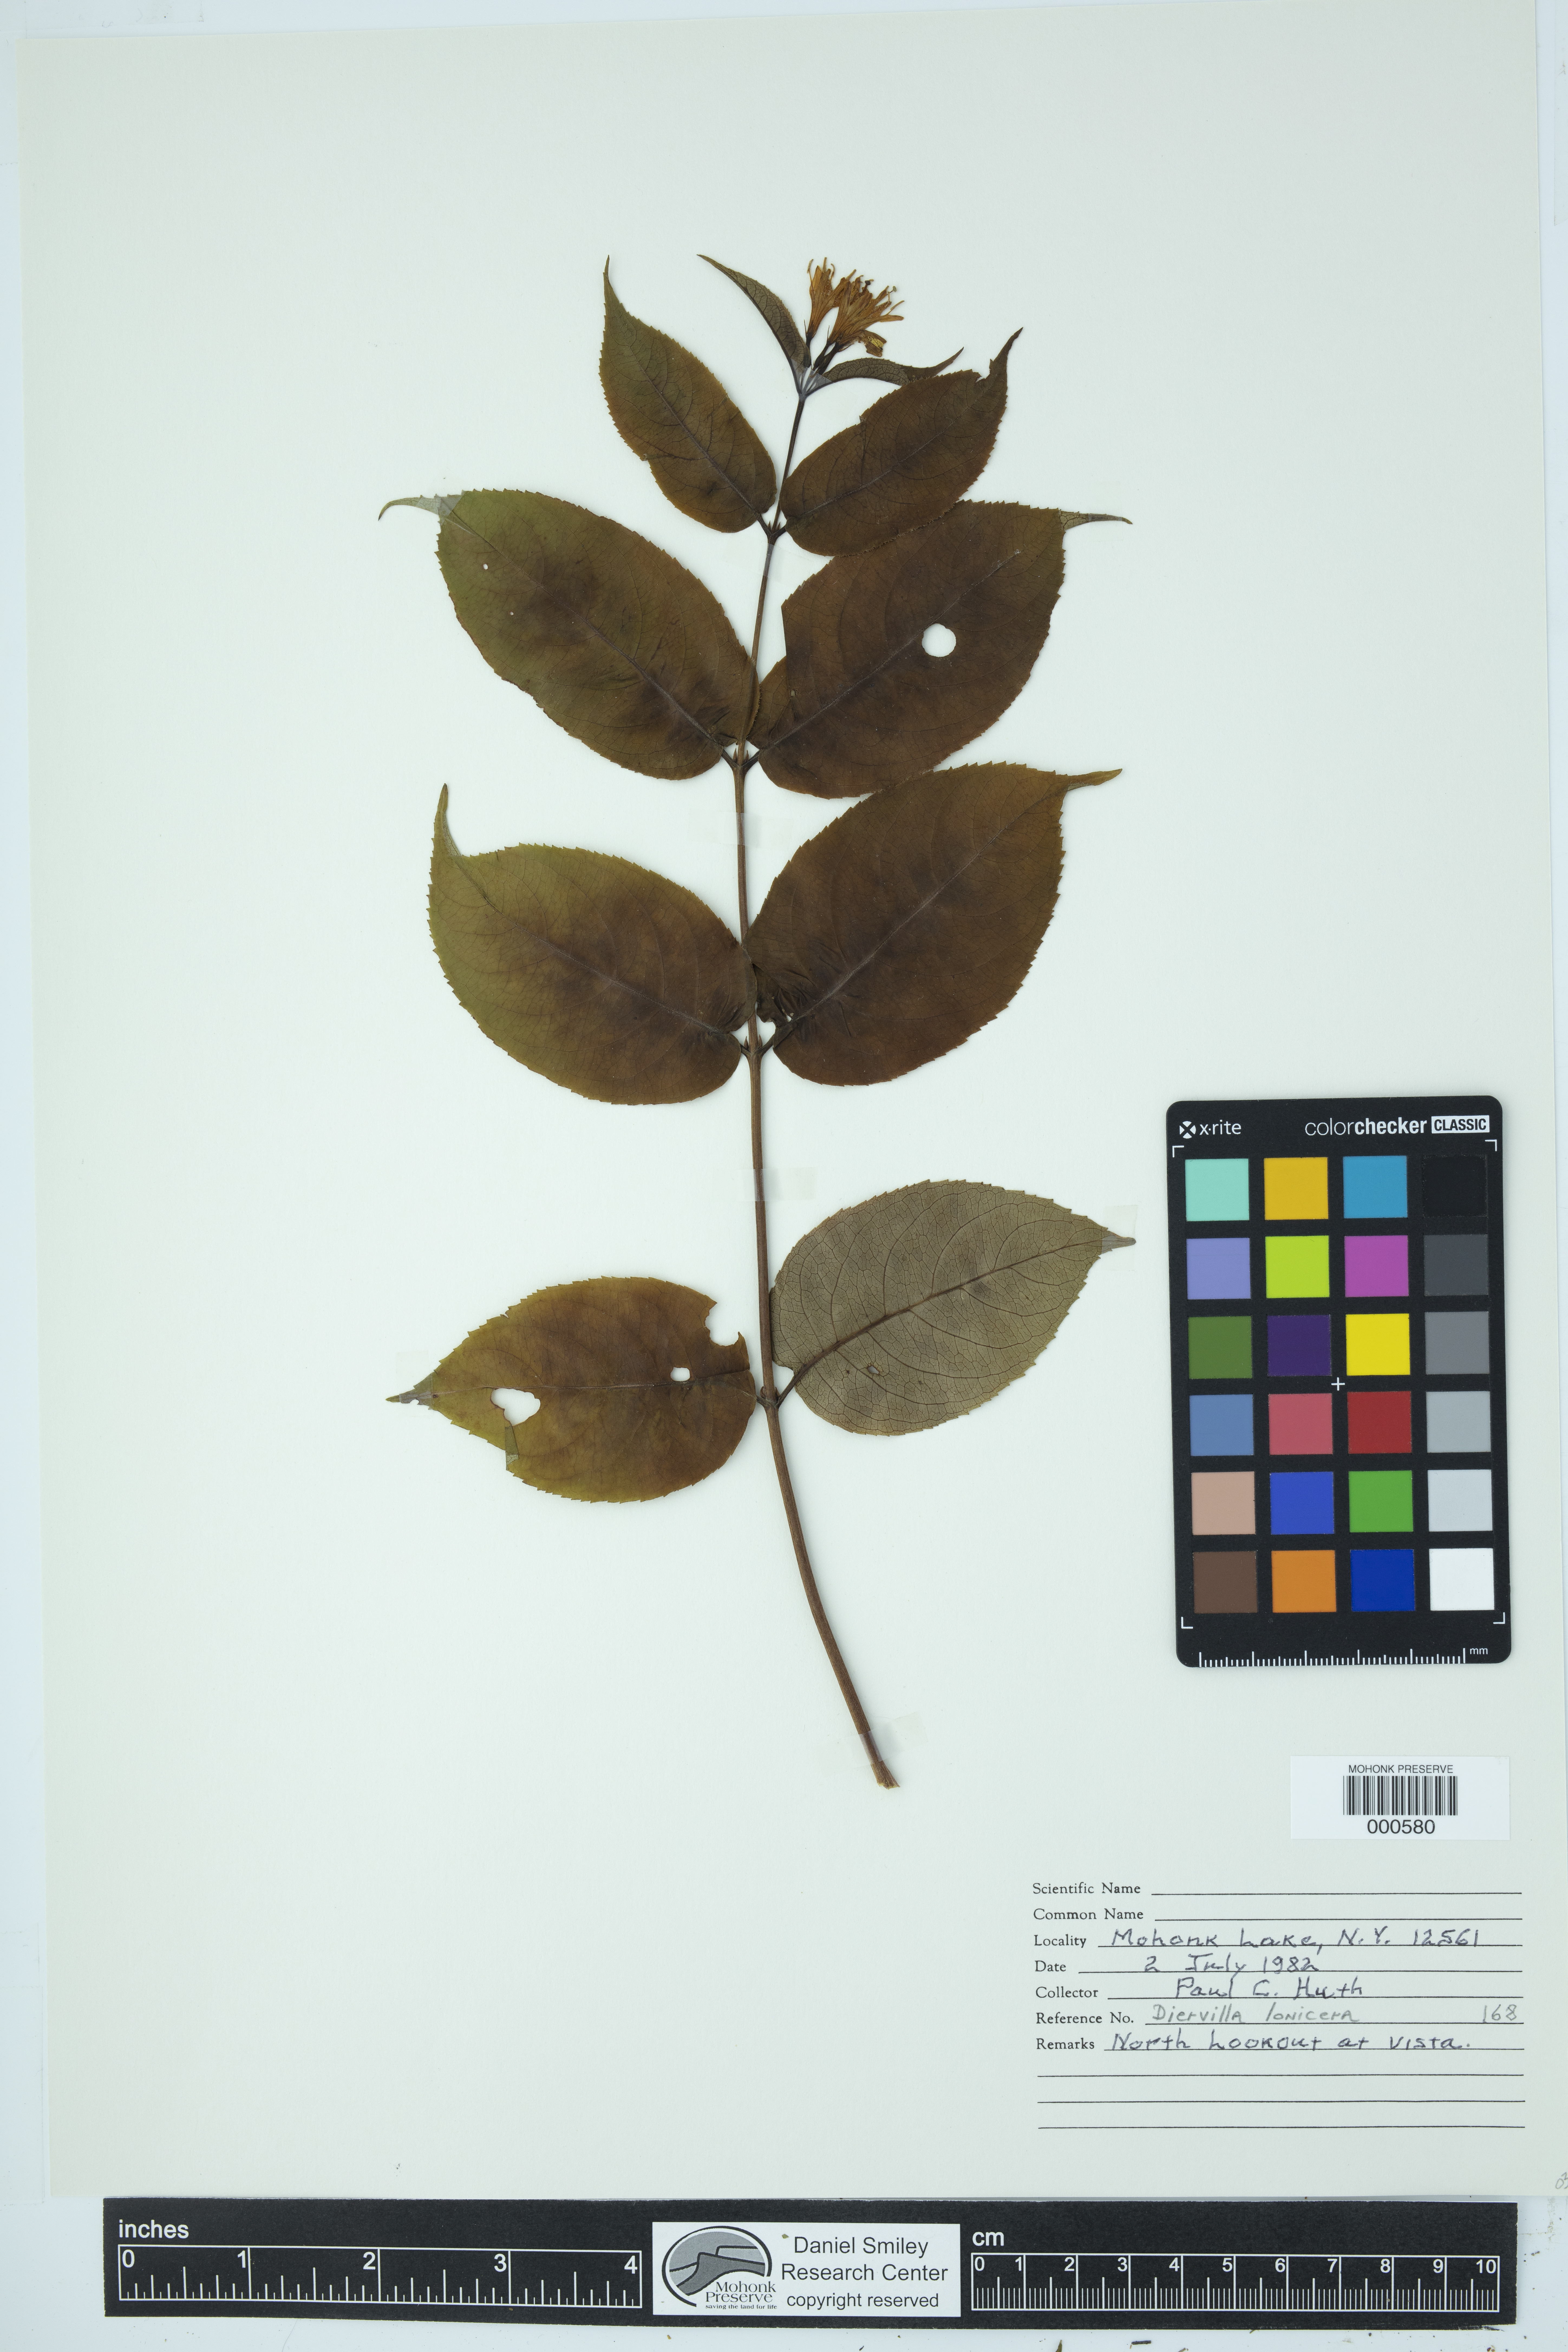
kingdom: Plantae
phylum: Tracheophyta
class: Magnoliopsida
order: Dipsacales
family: Caprifoliaceae
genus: Diervilla
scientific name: Diervilla lonicera
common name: Bush-honeysuckle
